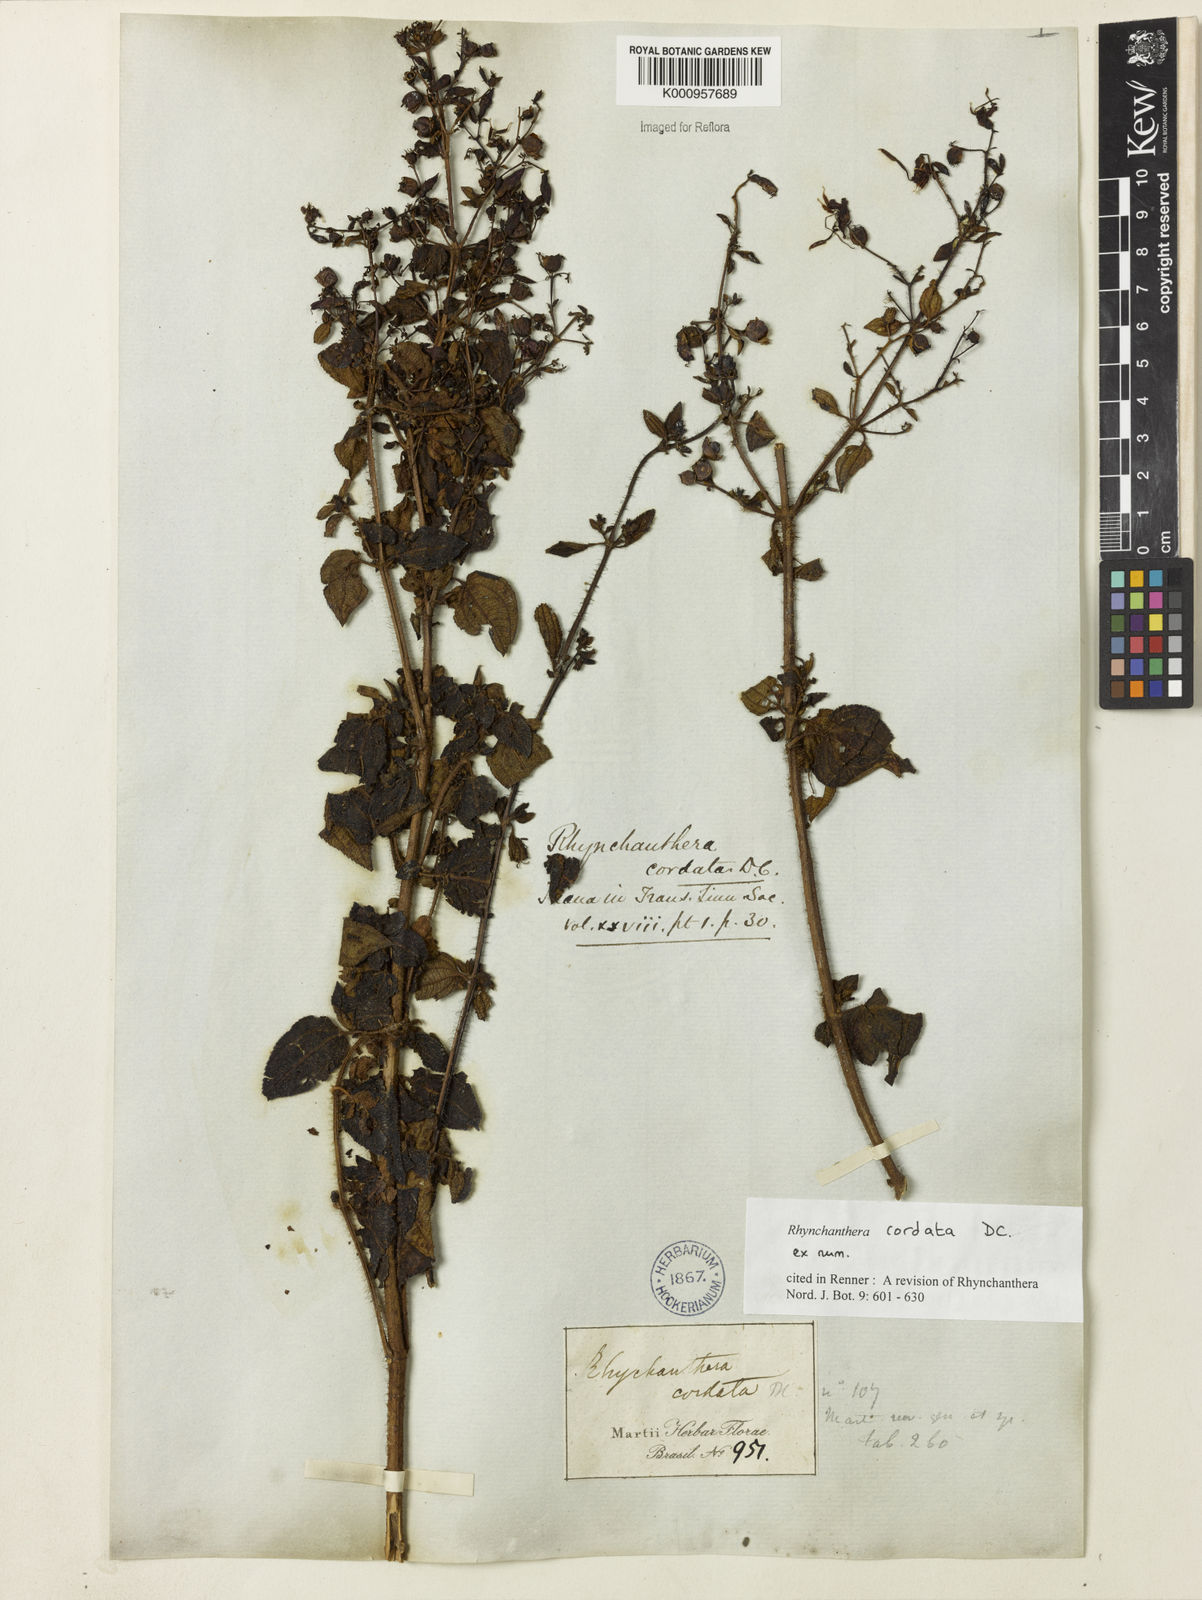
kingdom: Plantae
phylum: Tracheophyta
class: Magnoliopsida
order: Myrtales
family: Melastomataceae
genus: Rhynchanthera
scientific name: Rhynchanthera cordata
